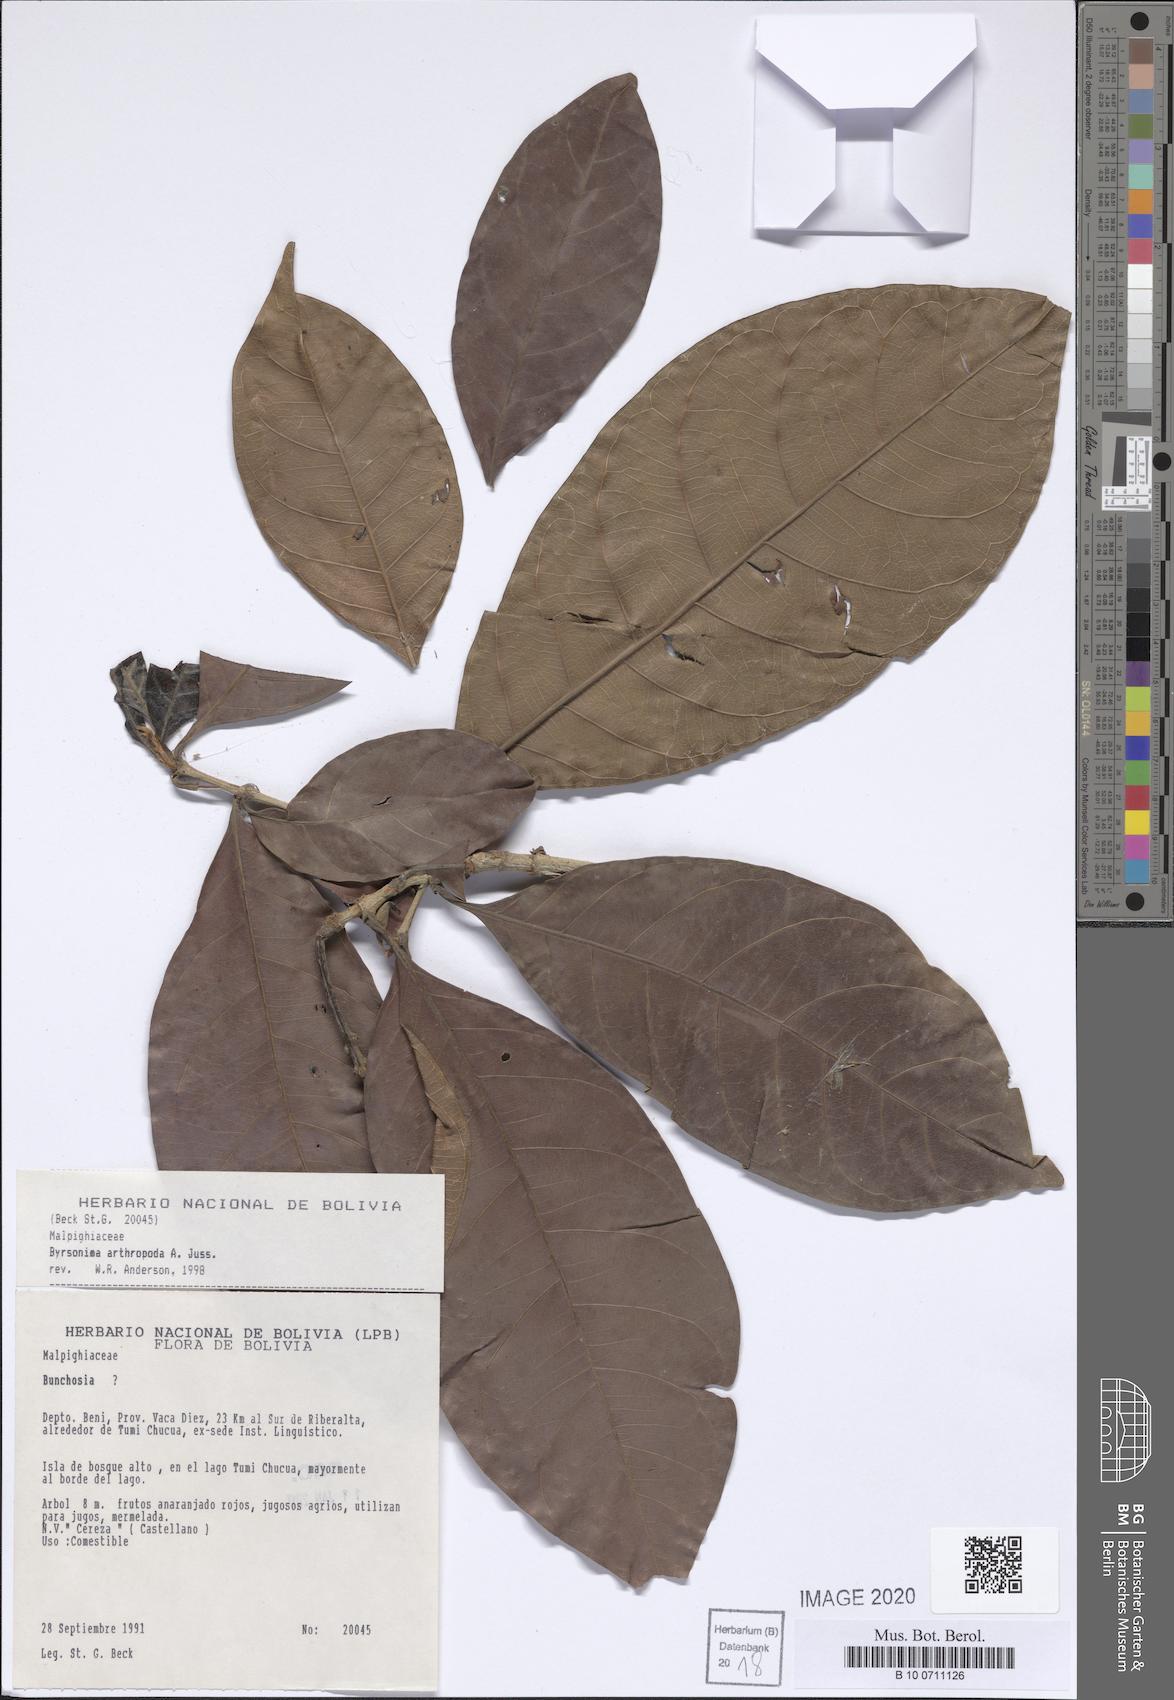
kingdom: Plantae
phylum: Tracheophyta
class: Magnoliopsida
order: Malpighiales
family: Malpighiaceae
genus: Byrsonima
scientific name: Byrsonima arthropoda
